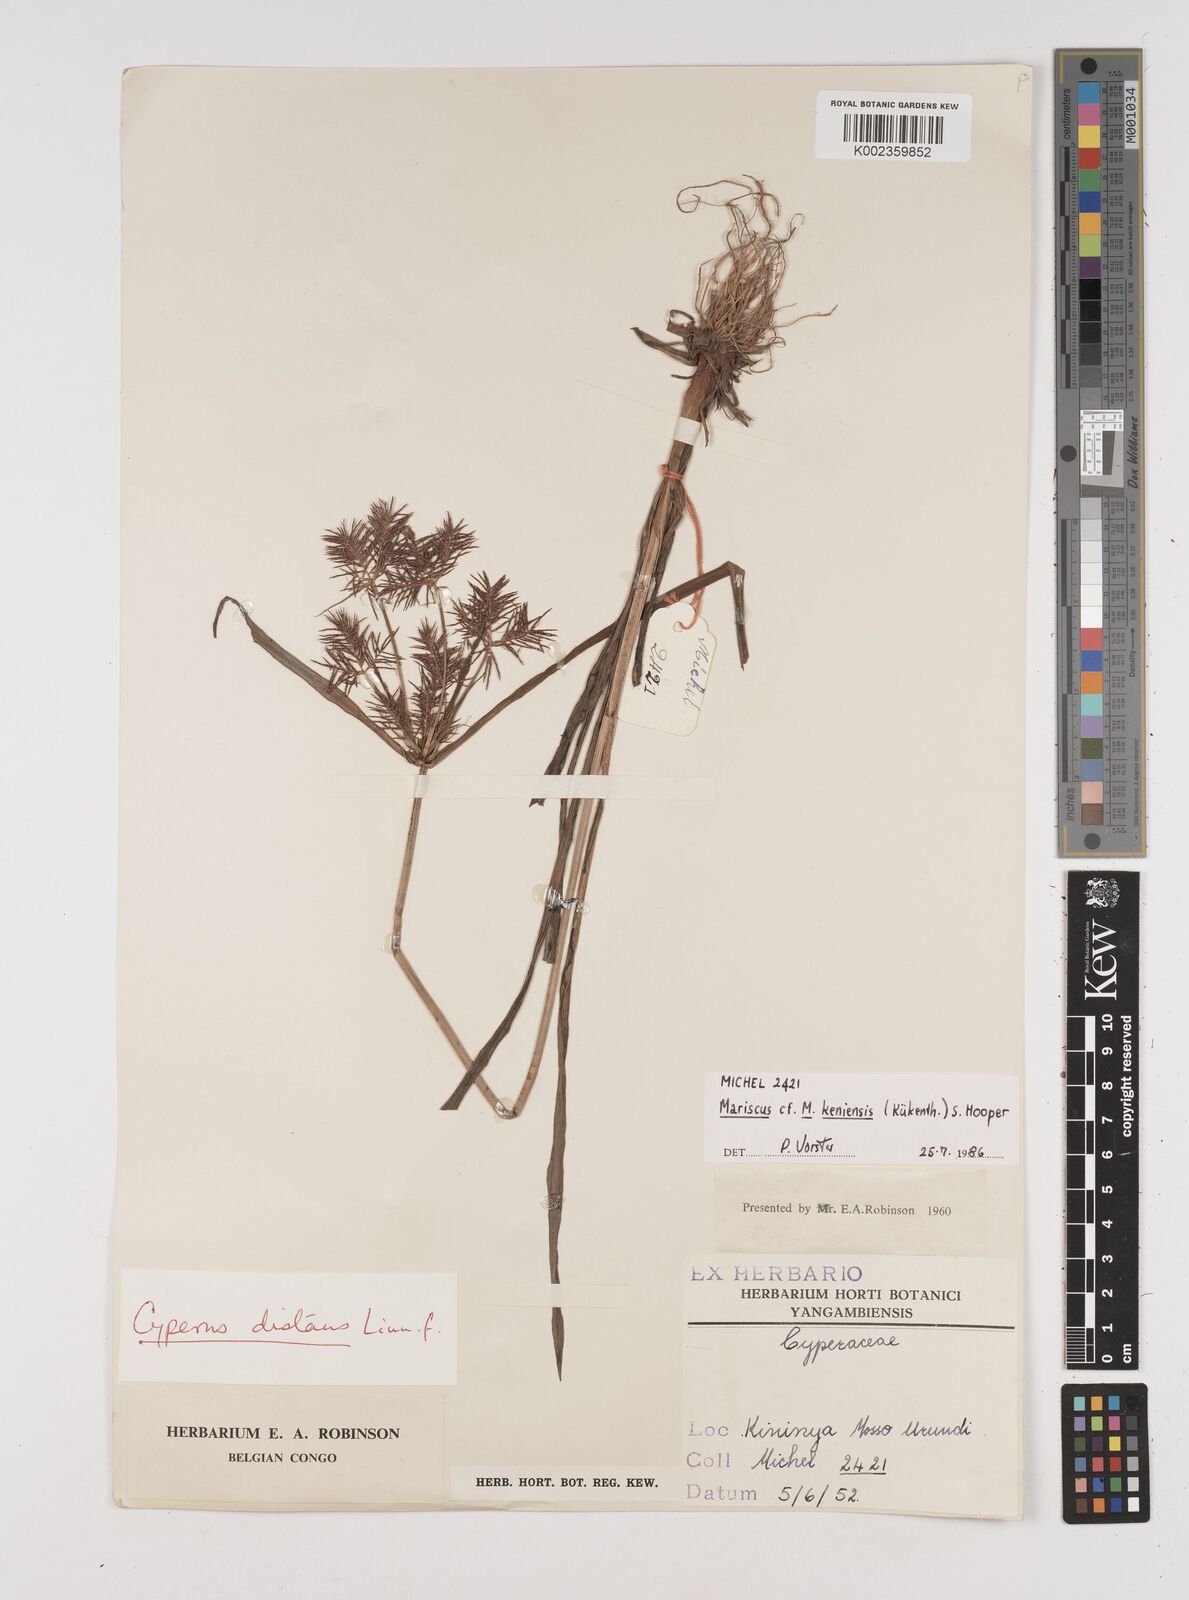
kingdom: Plantae
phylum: Tracheophyta
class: Liliopsida
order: Poales
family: Cyperaceae
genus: Cyperus
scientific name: Cyperus distans
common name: Slender cyperus
